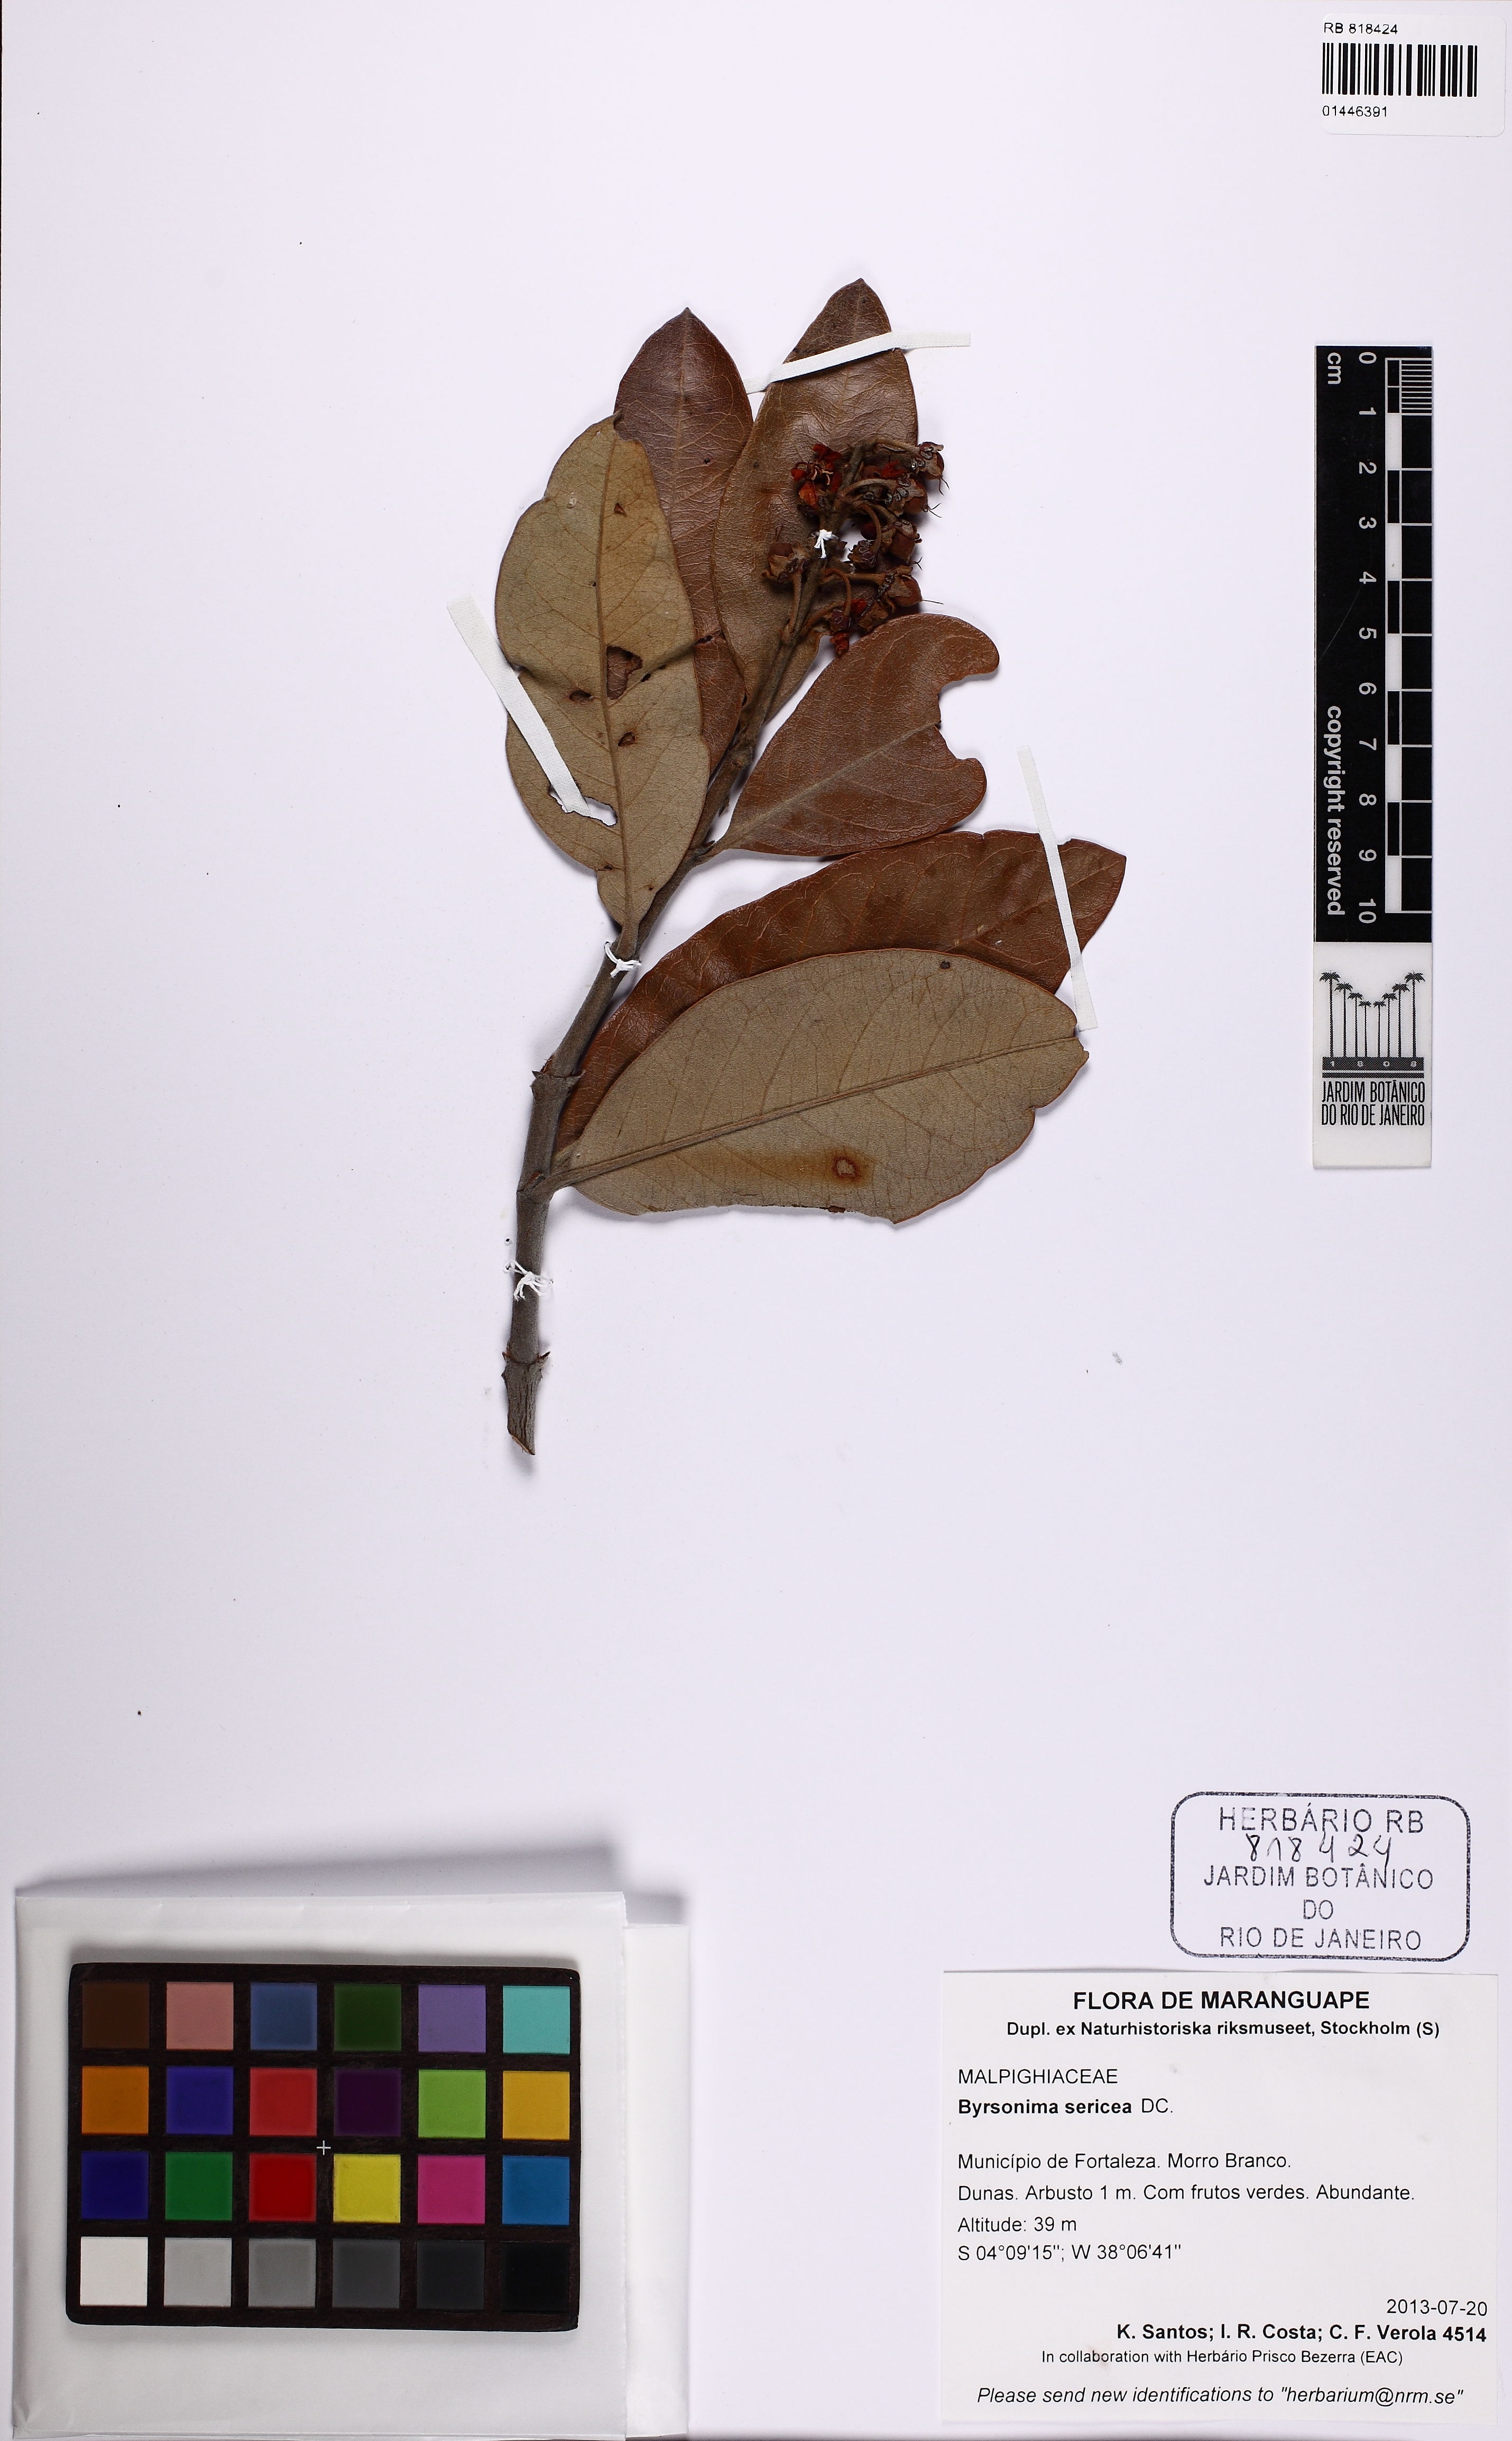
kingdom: Plantae
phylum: Tracheophyta
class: Magnoliopsida
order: Malpighiales
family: Malpighiaceae
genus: Byrsonima
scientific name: Byrsonima sericea
